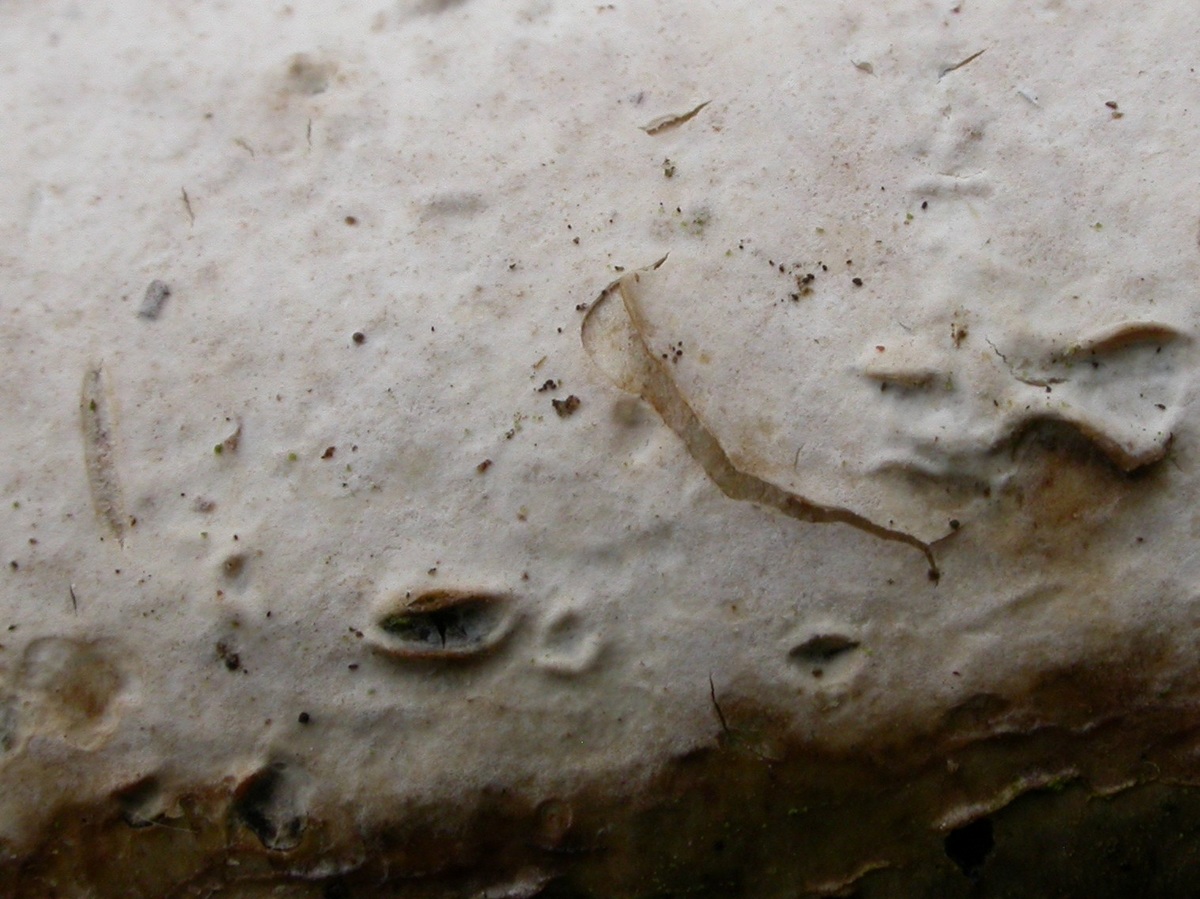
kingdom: Fungi
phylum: Basidiomycota
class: Agaricomycetes
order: Agaricales
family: Physalacriaceae
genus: Cylindrobasidium
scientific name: Cylindrobasidium evolvens
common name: sprækkehinde
